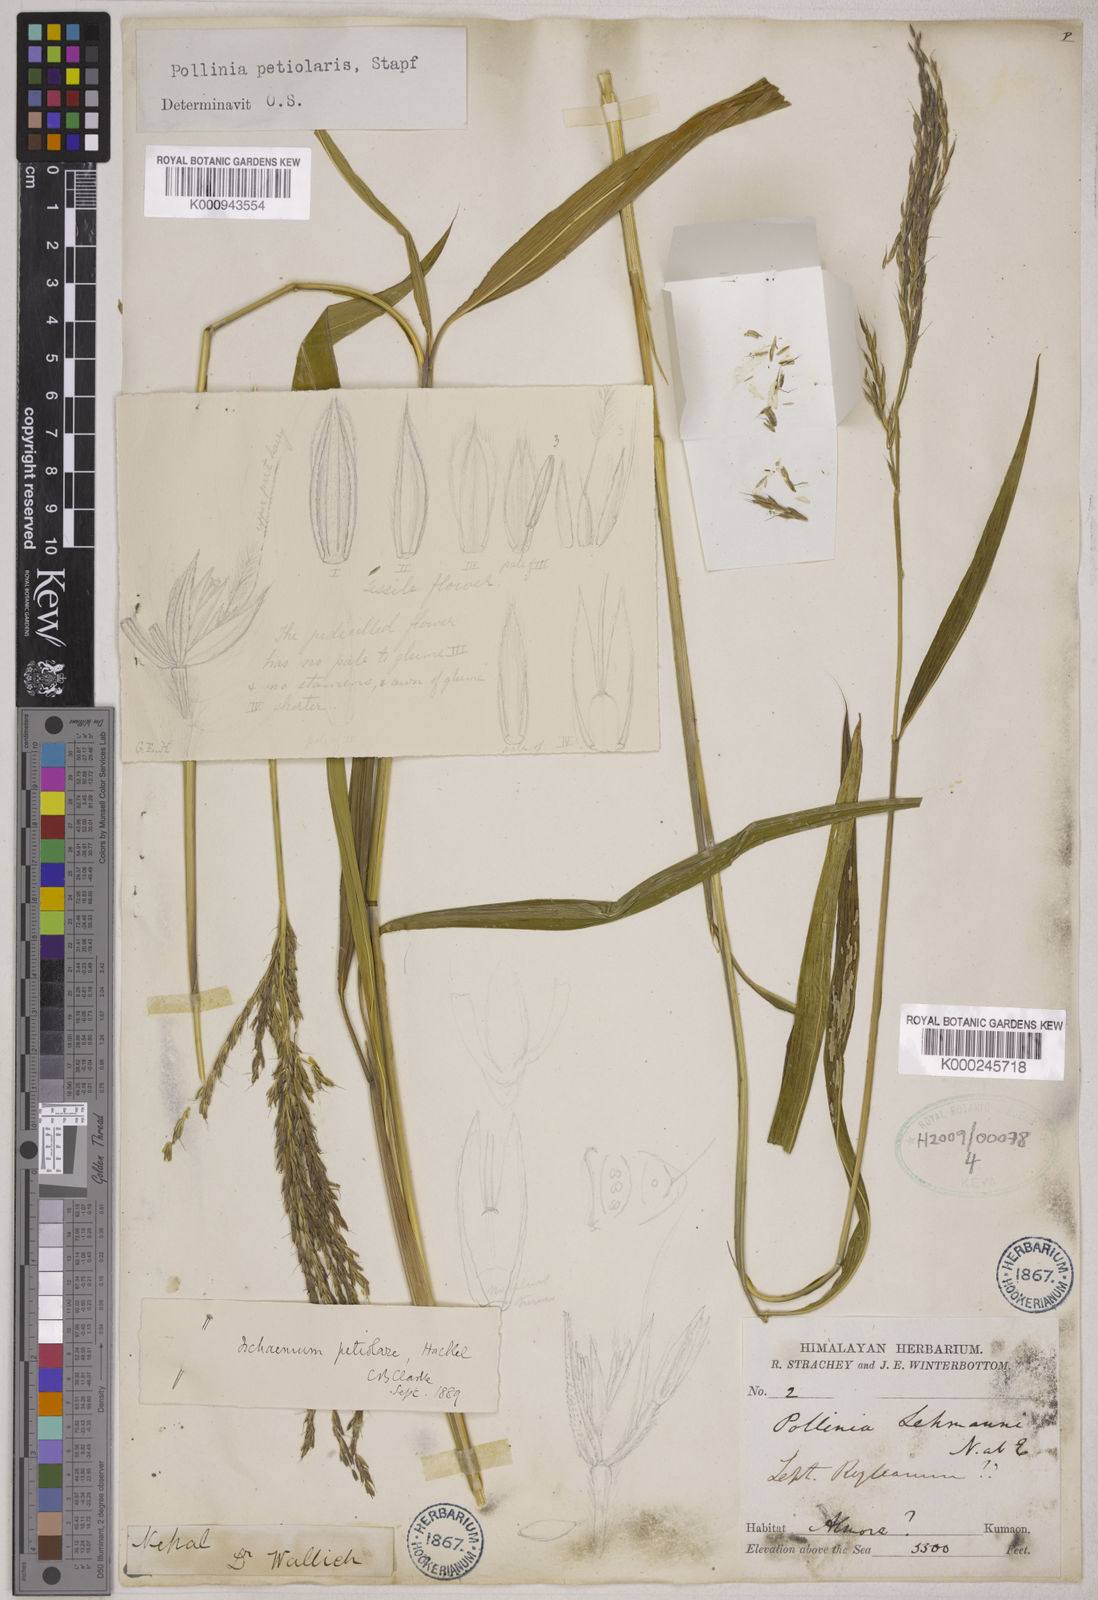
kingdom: Plantae
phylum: Tracheophyta
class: Liliopsida
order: Poales
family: Poaceae
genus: Microstegium
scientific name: Microstegium petiolare
